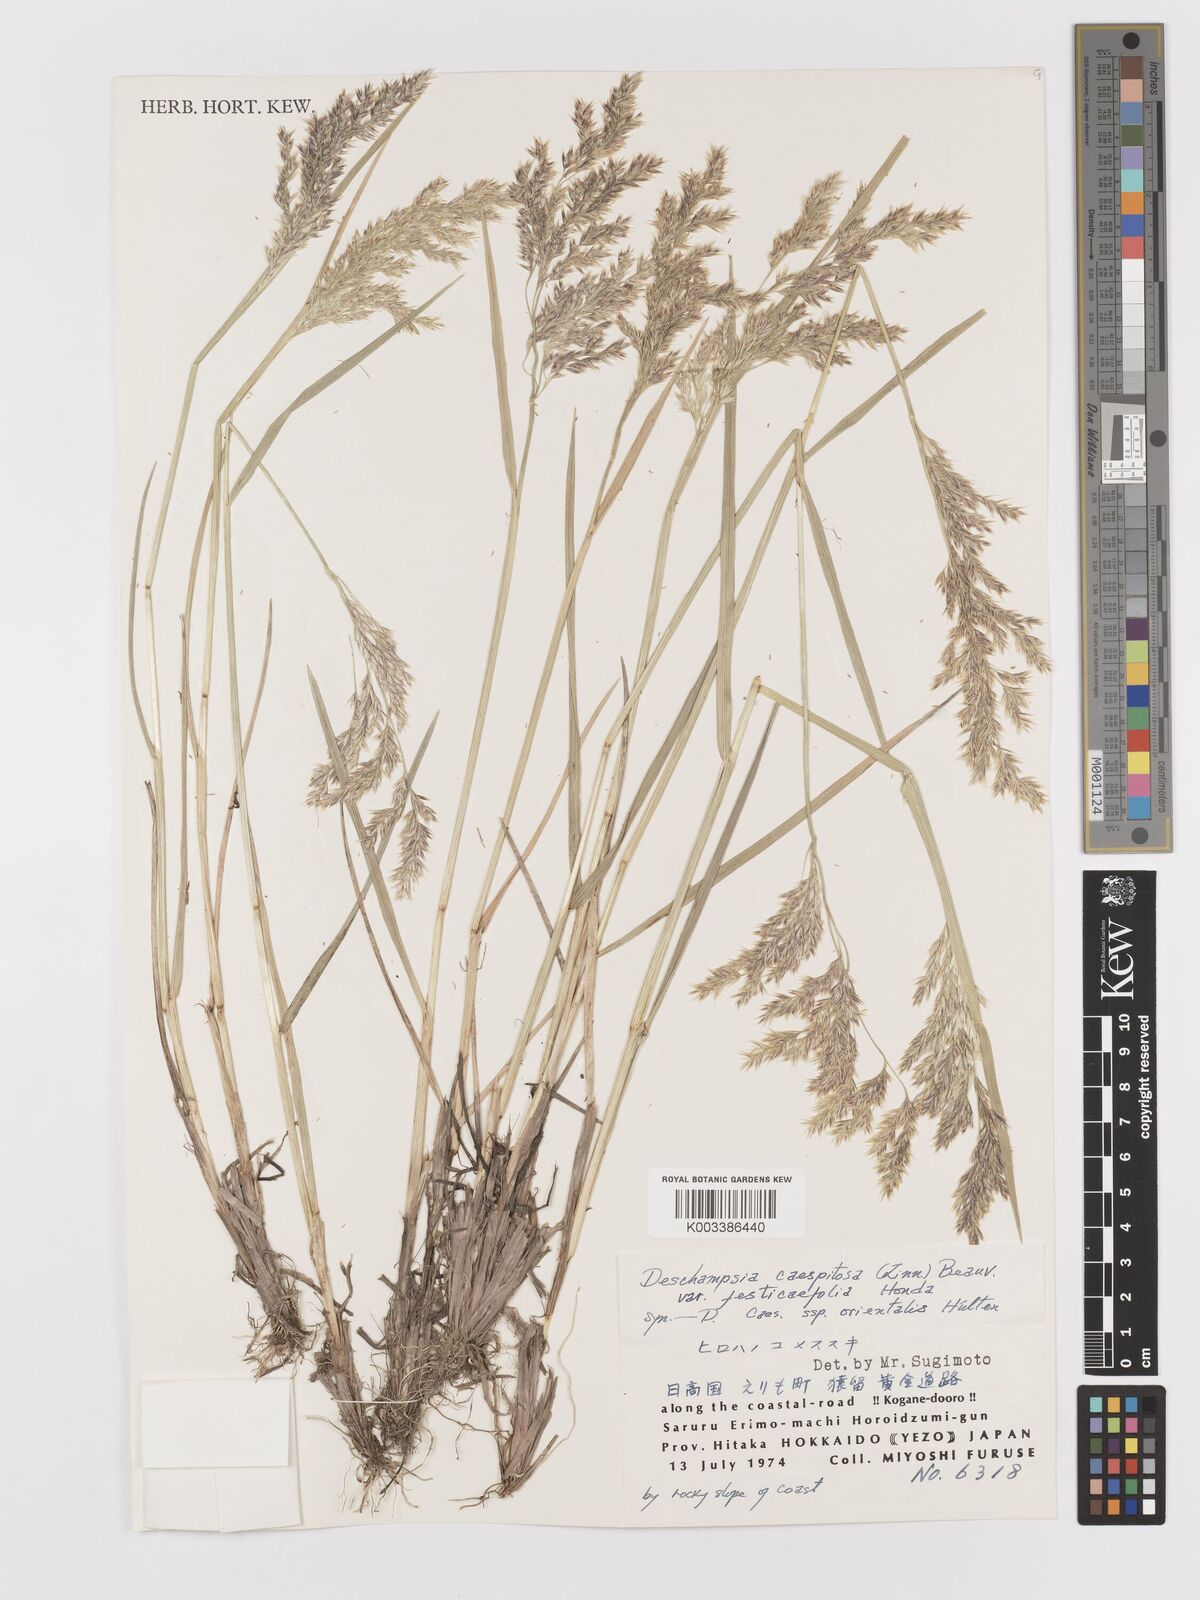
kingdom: Plantae
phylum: Tracheophyta
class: Liliopsida
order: Poales
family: Poaceae
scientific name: Poaceae
